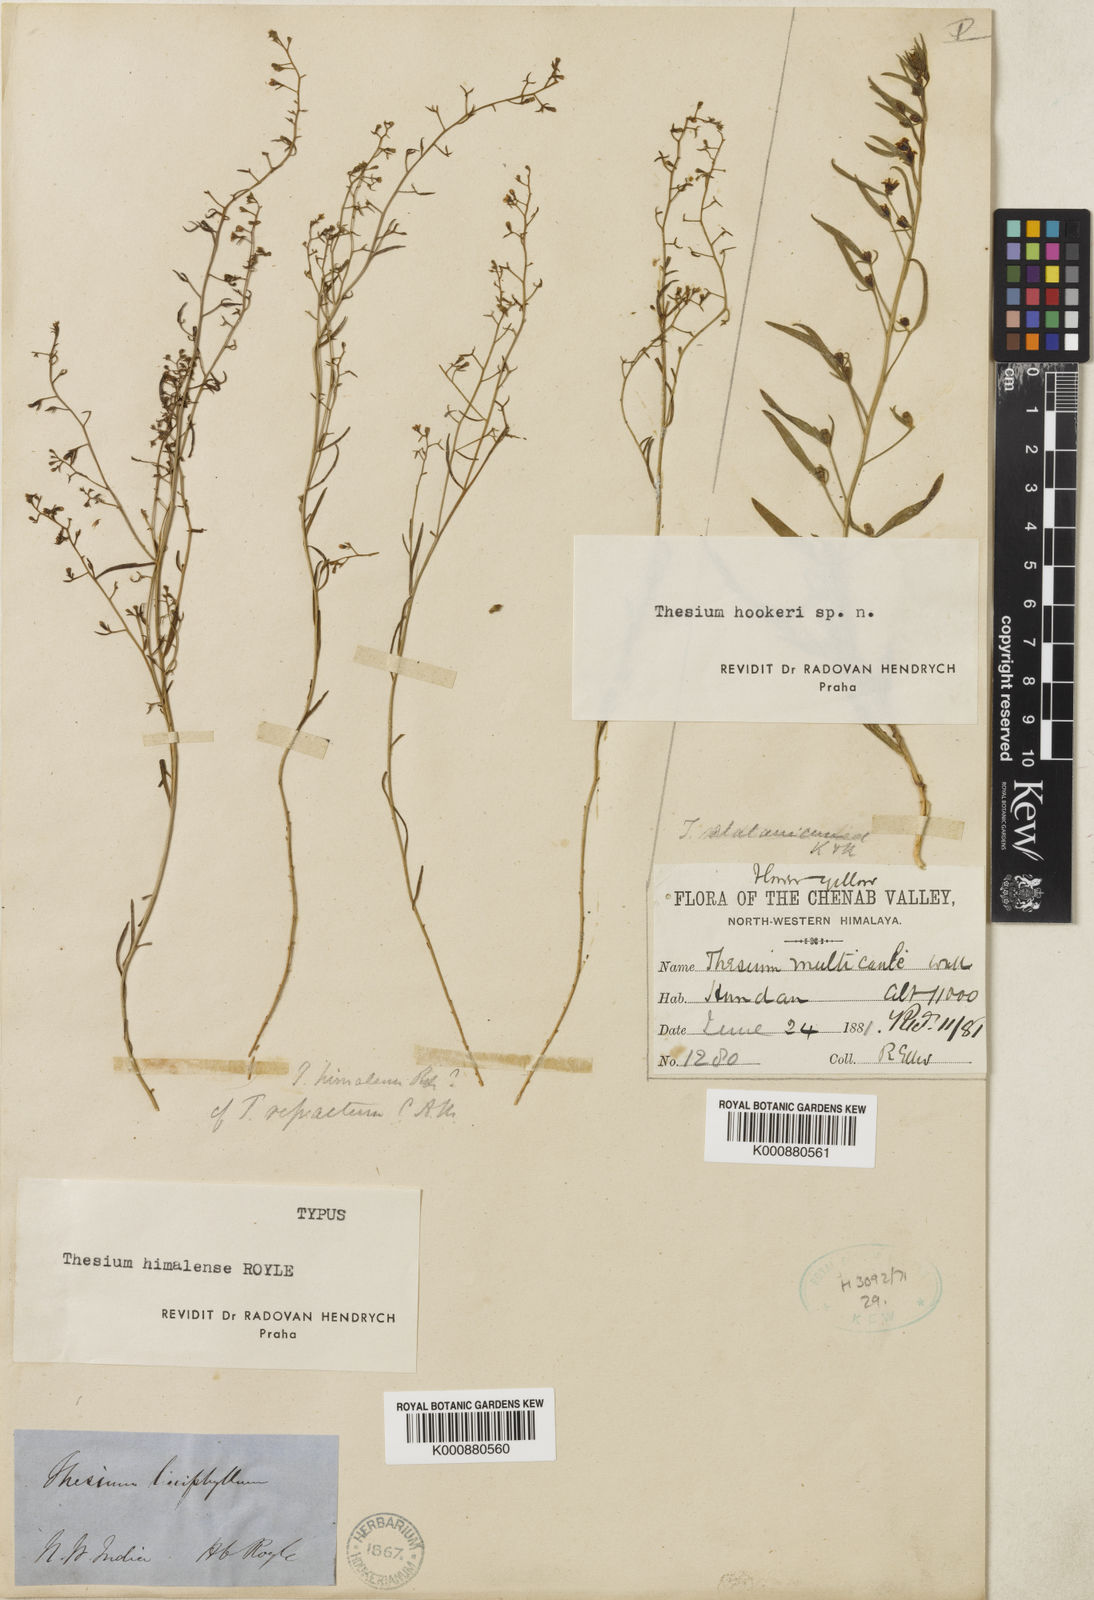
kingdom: Plantae
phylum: Tracheophyta
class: Magnoliopsida
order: Santalales
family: Thesiaceae
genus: Thesium
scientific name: Thesium
